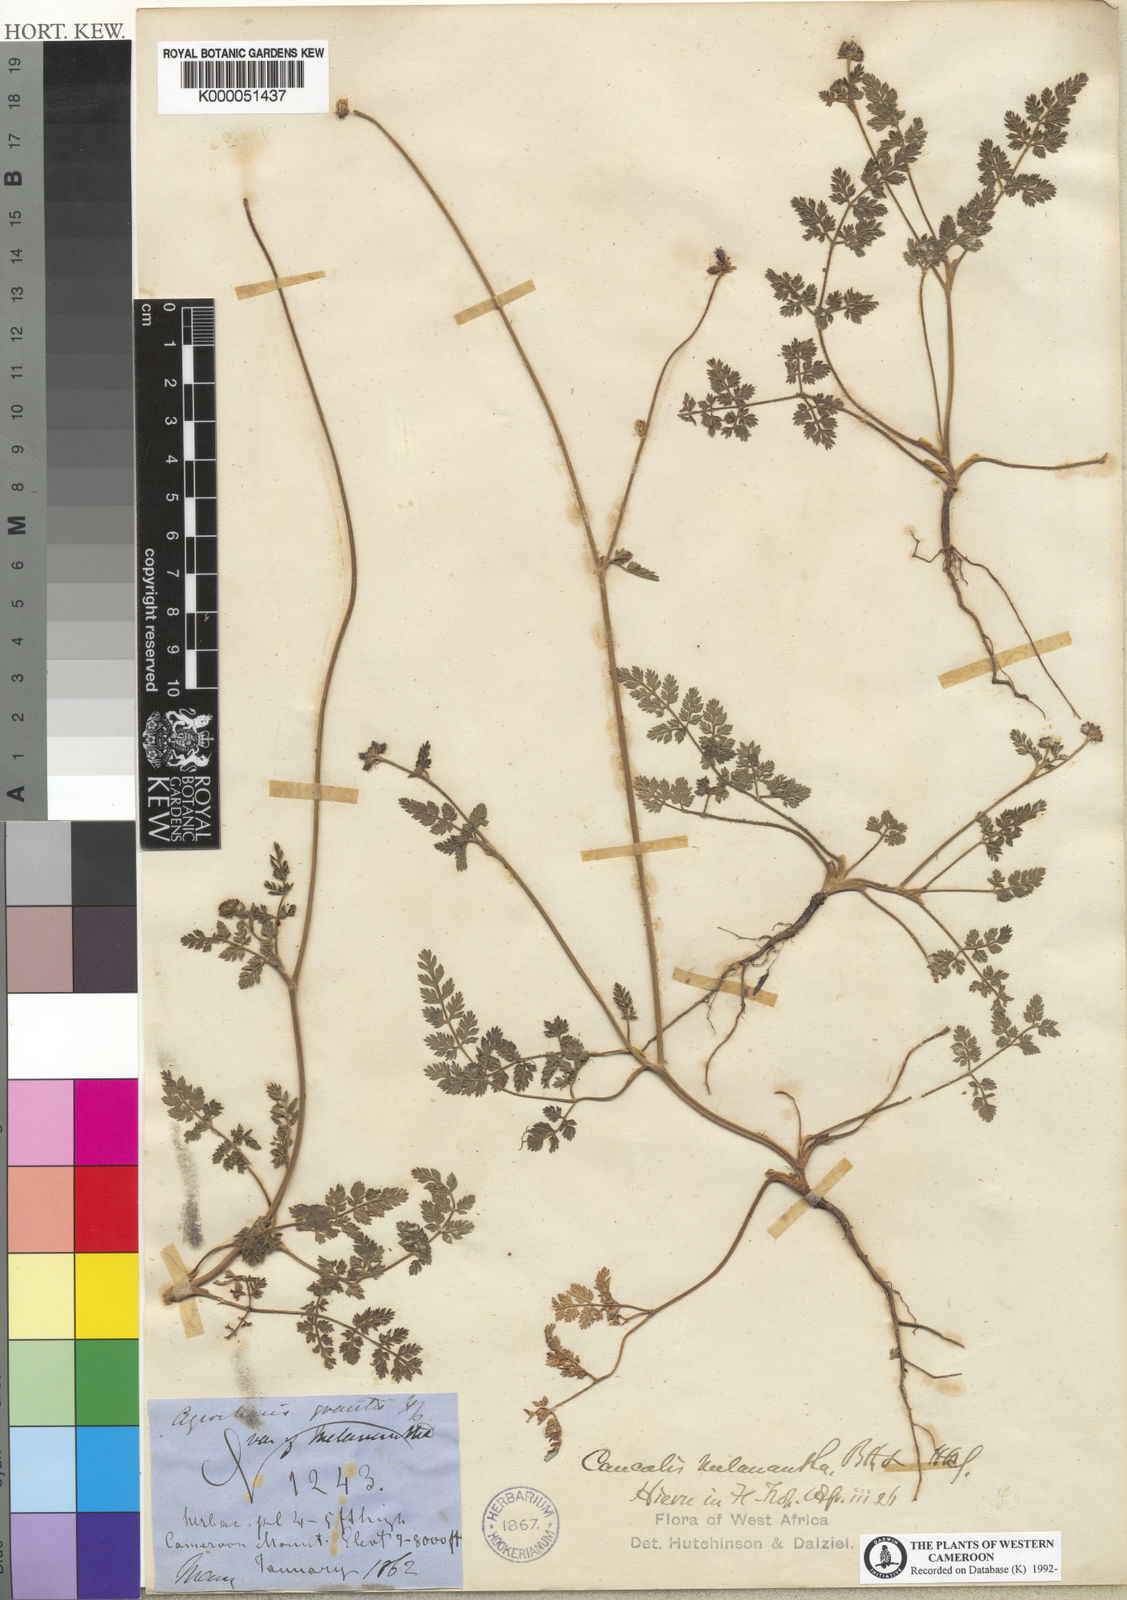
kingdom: Plantae
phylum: Tracheophyta
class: Magnoliopsida
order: Apiales
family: Apiaceae
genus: Daucus
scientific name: Daucus incognitus
